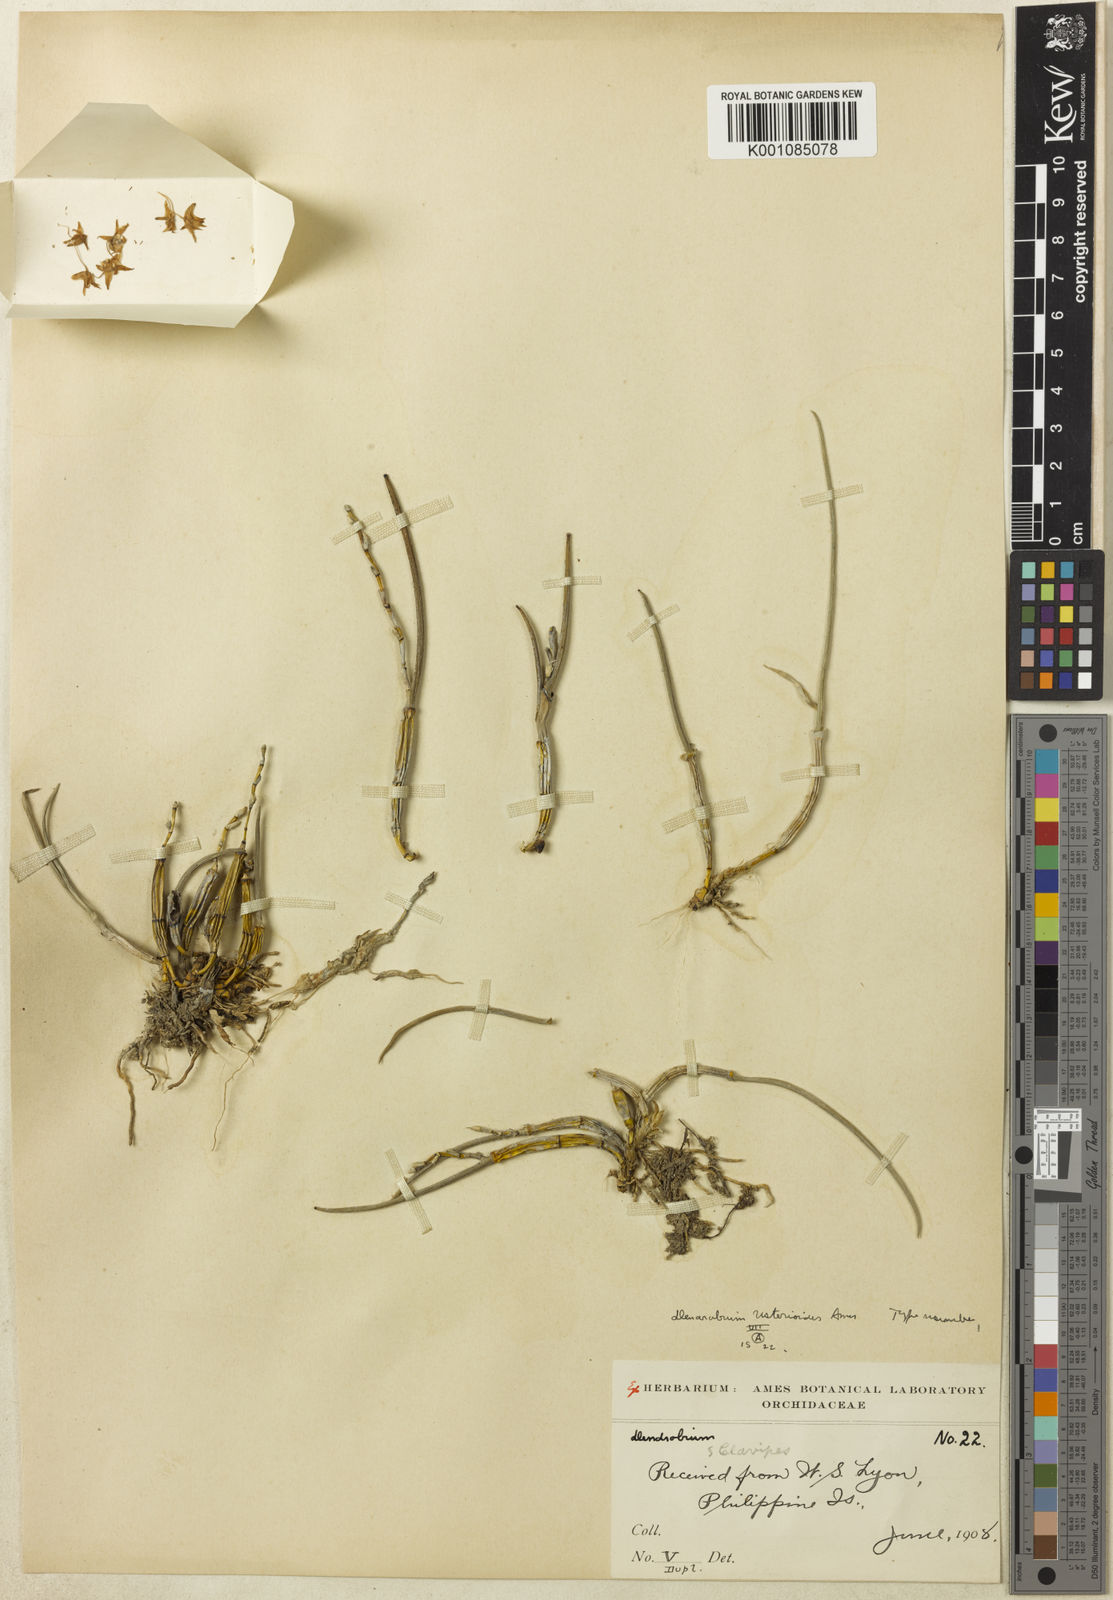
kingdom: Plantae
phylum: Tracheophyta
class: Liliopsida
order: Asparagales
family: Orchidaceae
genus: Dendrobium
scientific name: Dendrobium usterioides
